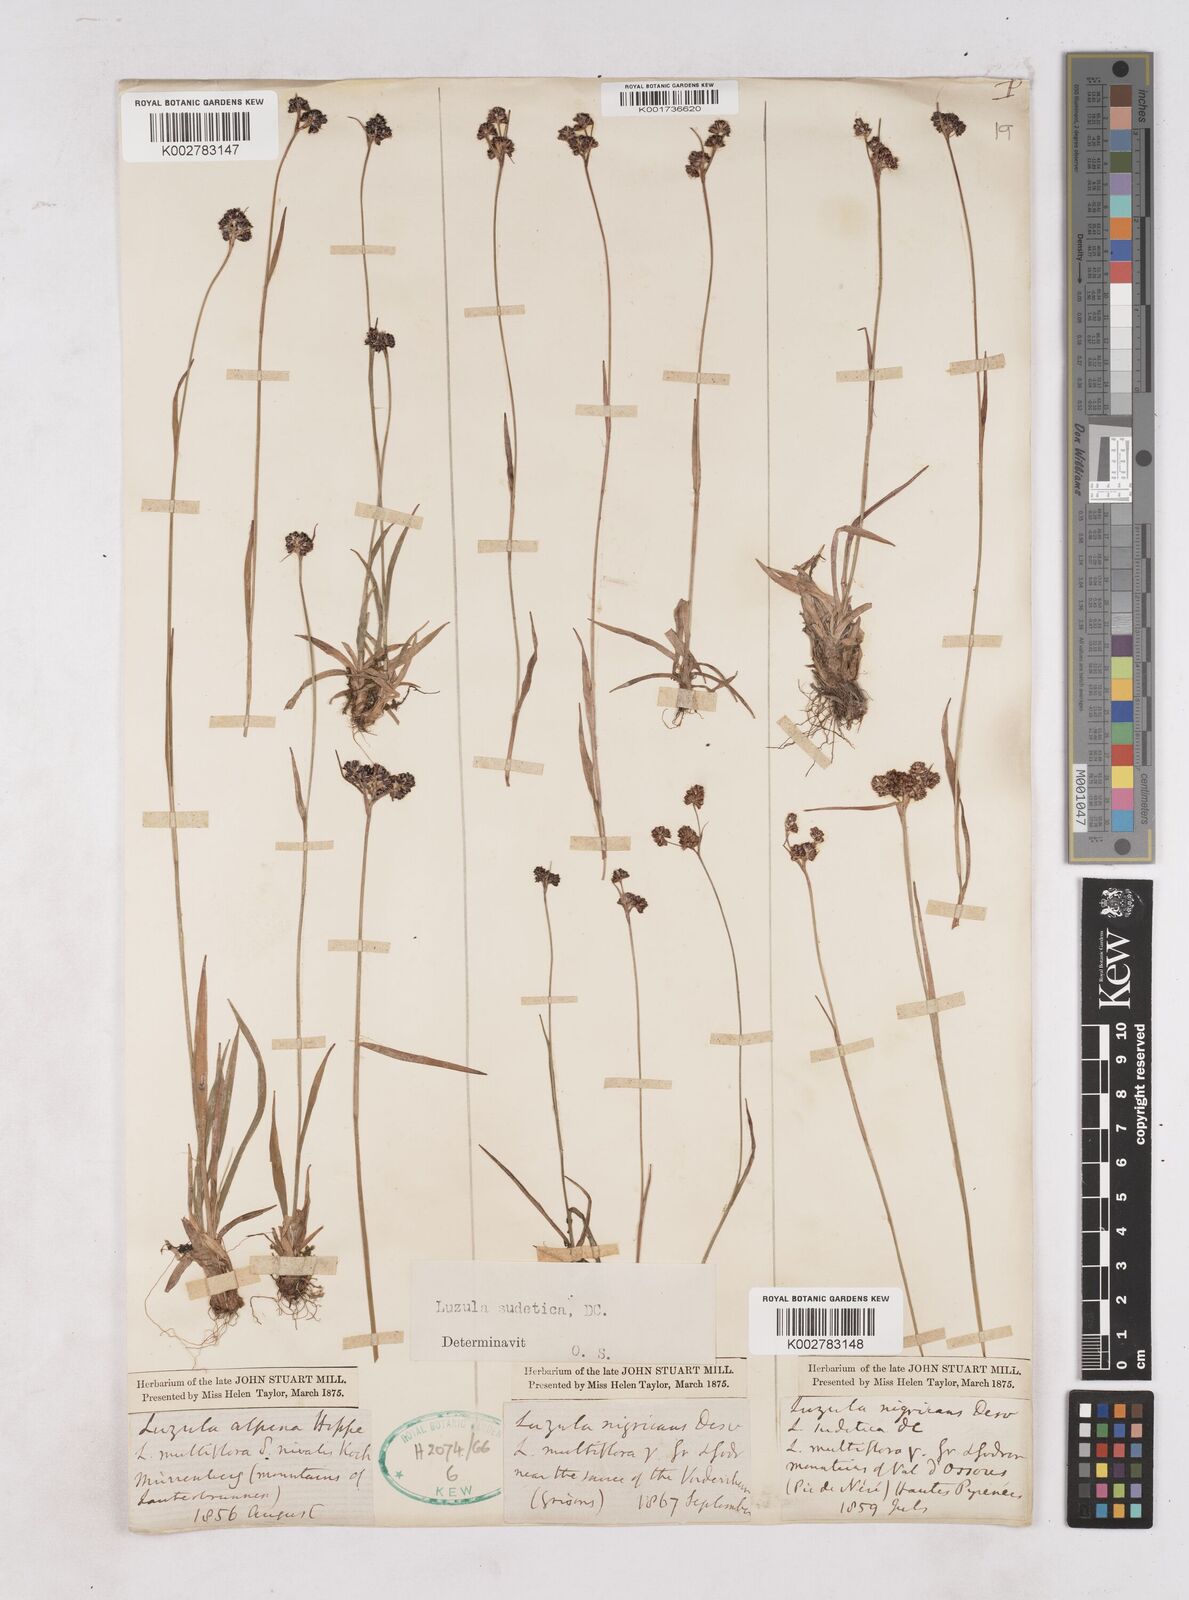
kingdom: Plantae
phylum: Tracheophyta
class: Liliopsida
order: Poales
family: Juncaceae
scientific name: Juncaceae
